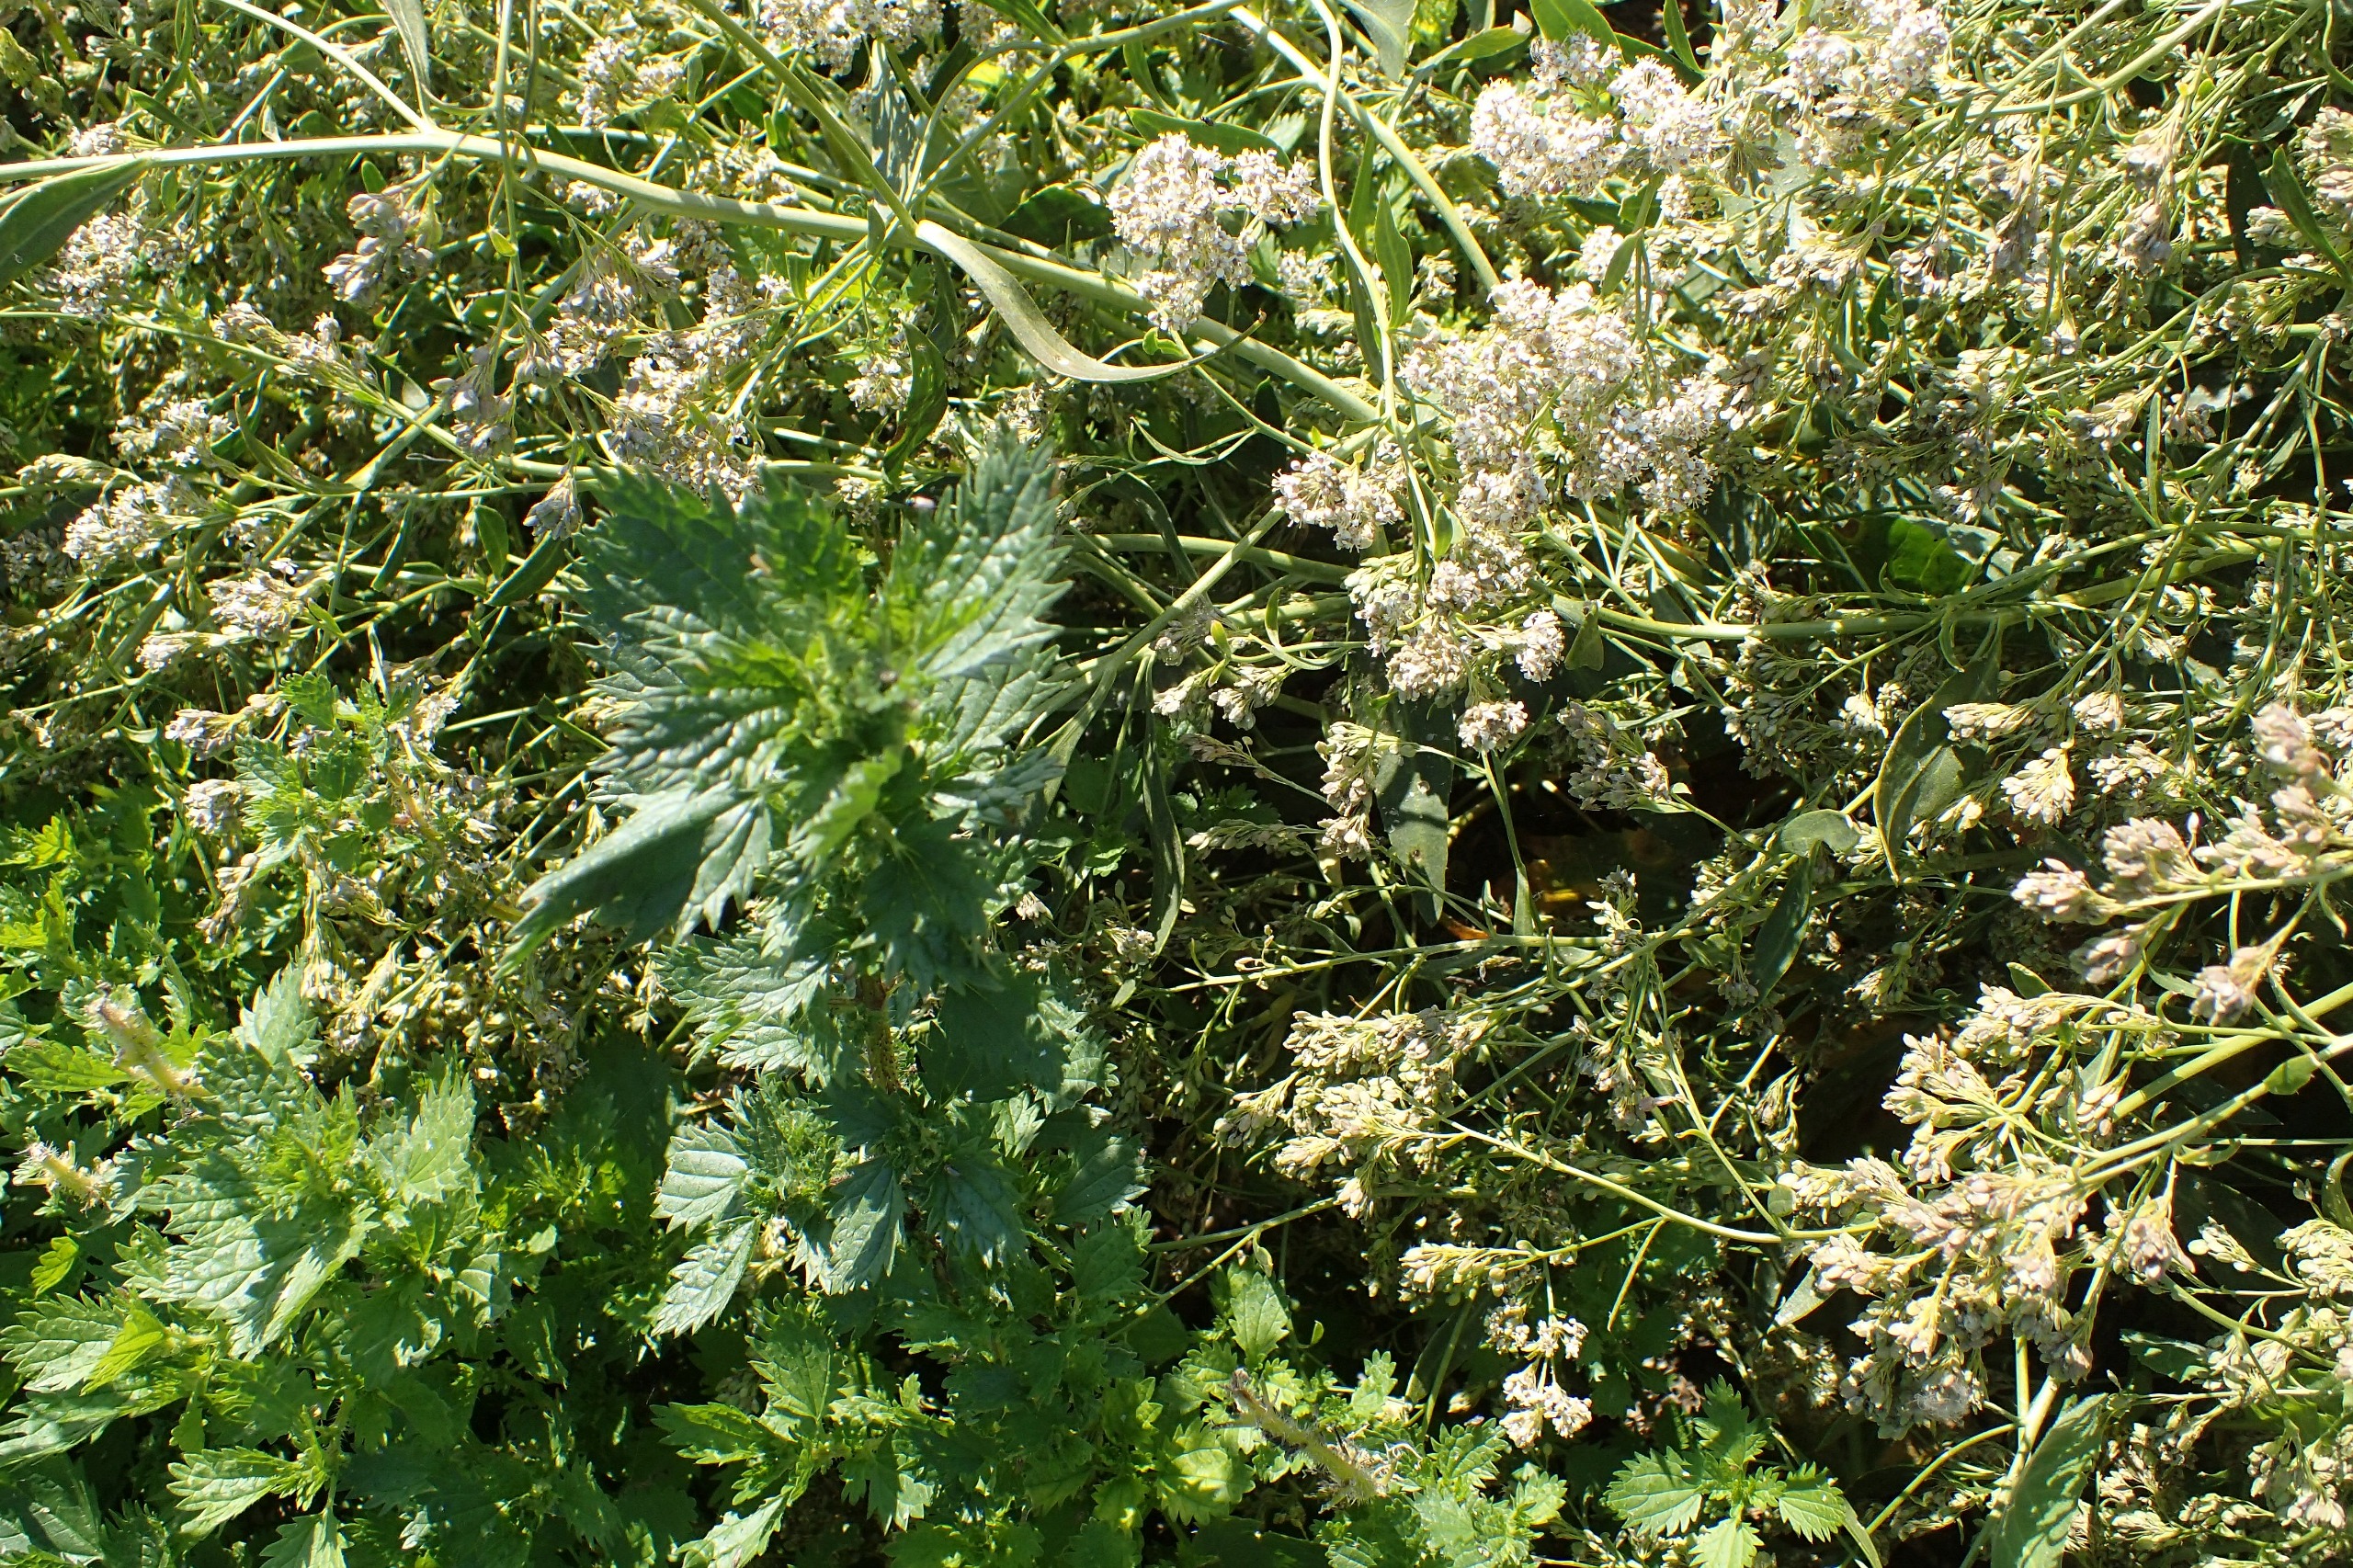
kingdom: Plantae
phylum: Tracheophyta
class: Magnoliopsida
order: Brassicales
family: Brassicaceae
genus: Lepidium
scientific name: Lepidium latifolium
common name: Strand-karse
